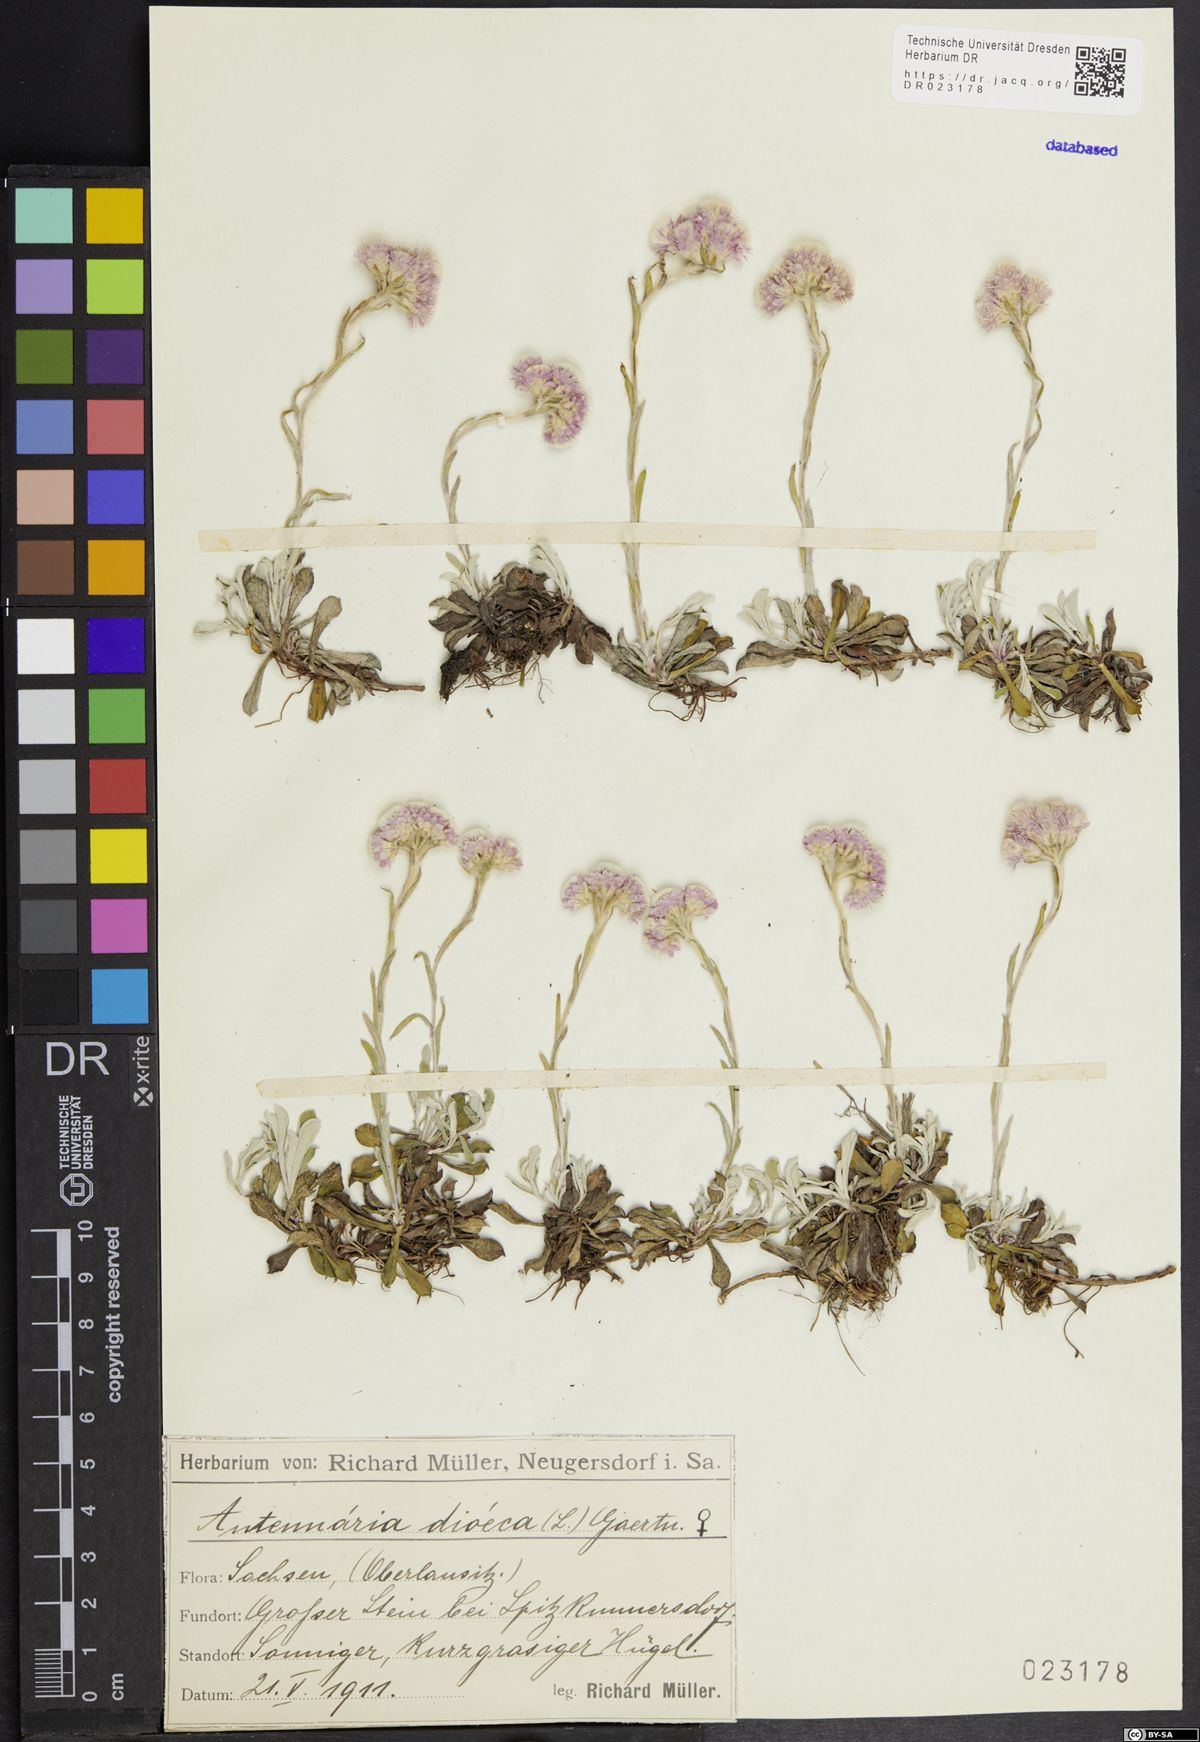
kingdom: Plantae
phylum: Tracheophyta
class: Magnoliopsida
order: Asterales
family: Asteraceae
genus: Antennaria
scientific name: Antennaria dioica
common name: Mountain everlasting
